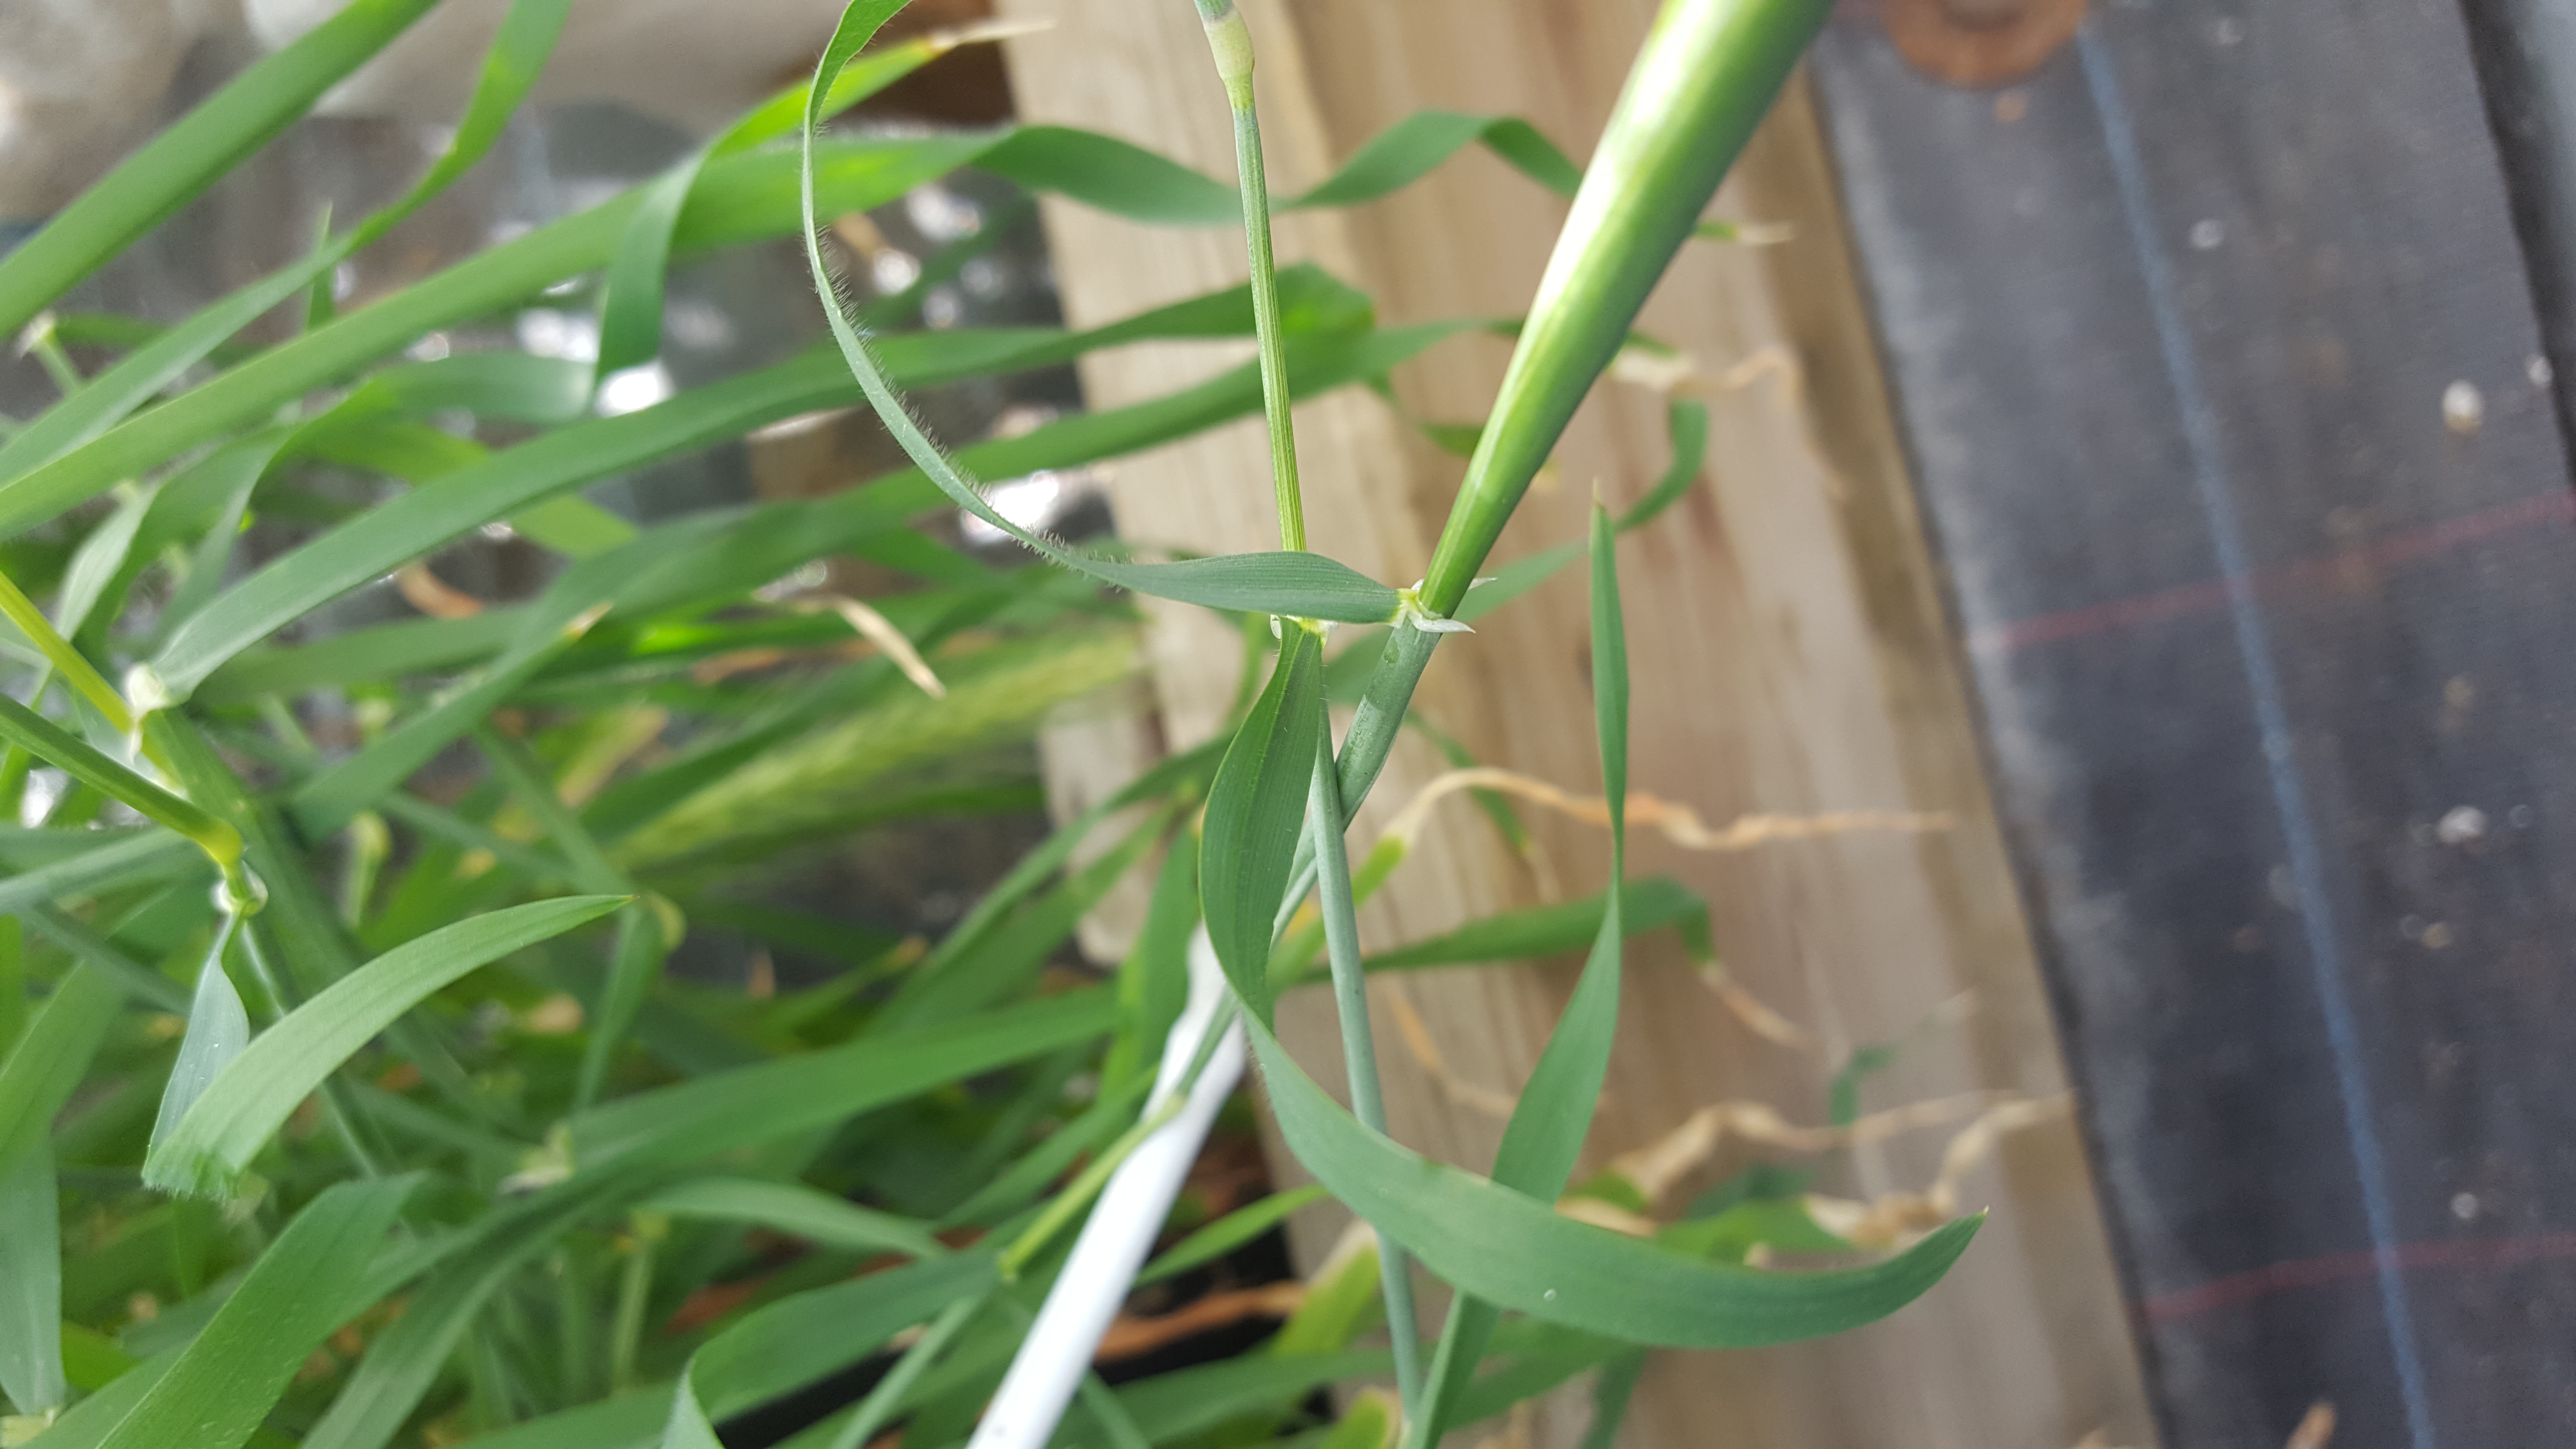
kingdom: Plantae
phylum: Tracheophyta
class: Liliopsida
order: Poales
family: Poaceae
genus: Hordeum
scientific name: Hordeum murinum
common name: Wall barley
